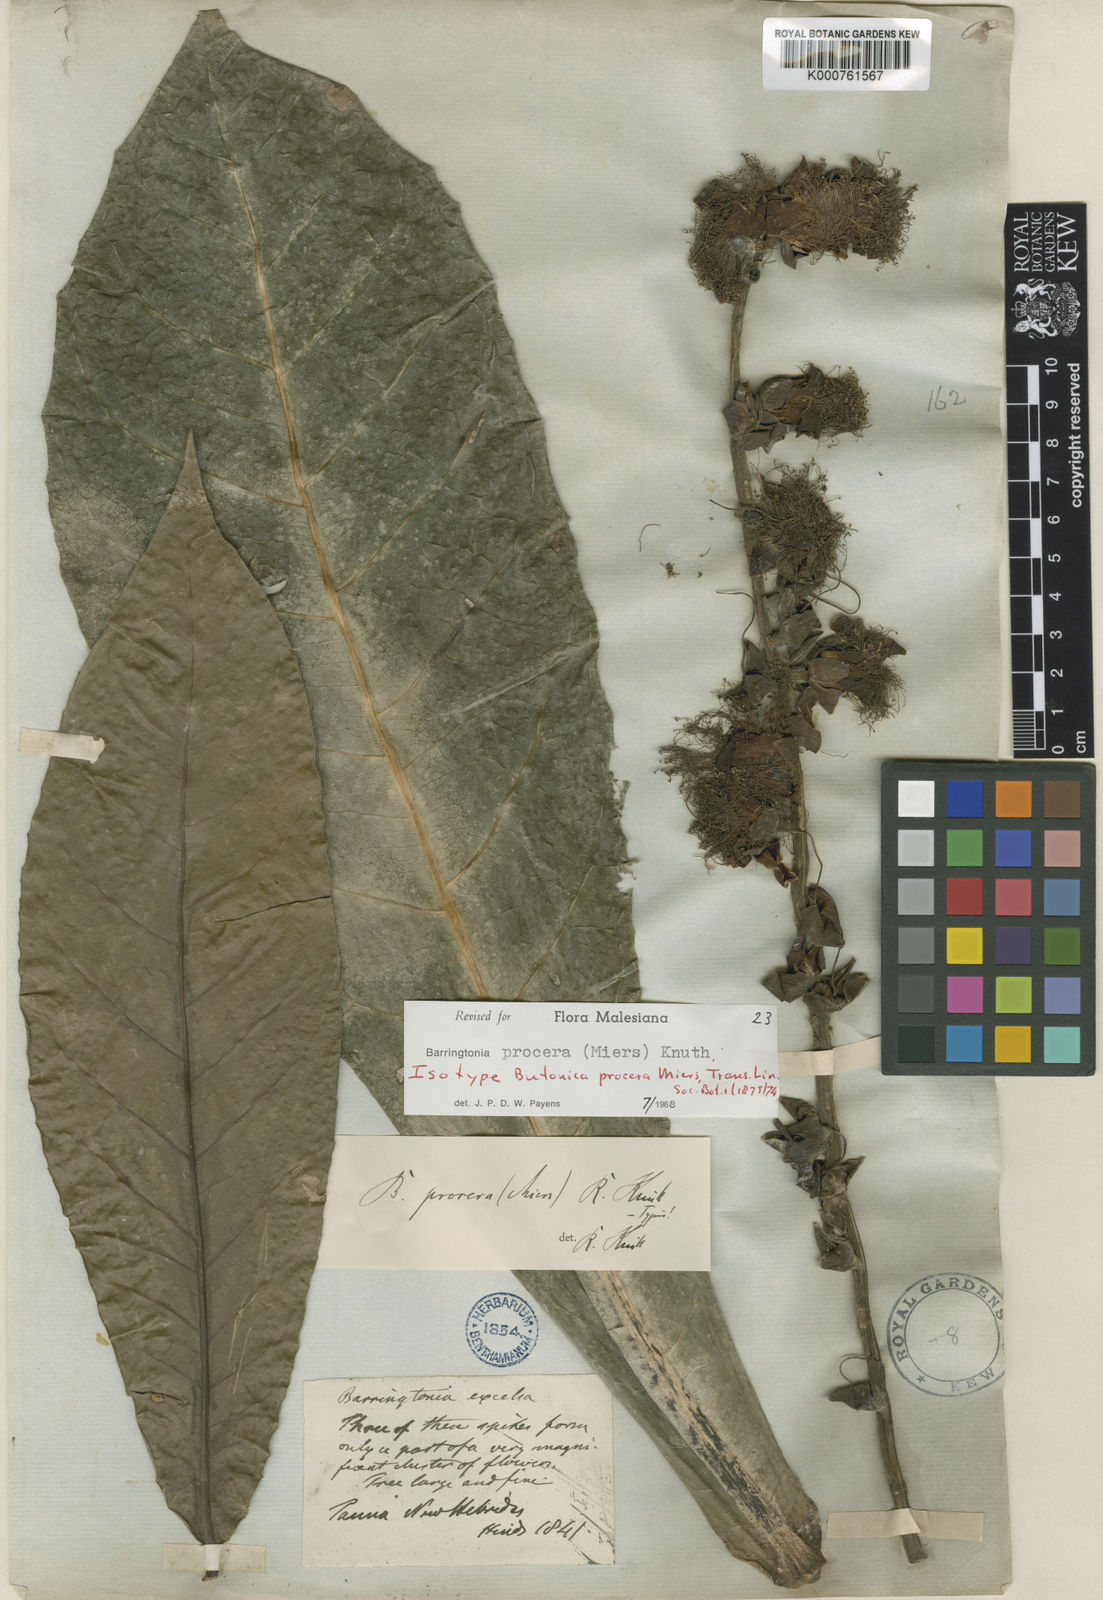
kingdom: Plantae
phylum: Tracheophyta
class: Magnoliopsida
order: Ericales
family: Lecythidaceae
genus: Barringtonia
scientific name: Barringtonia procera
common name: Cutnut
